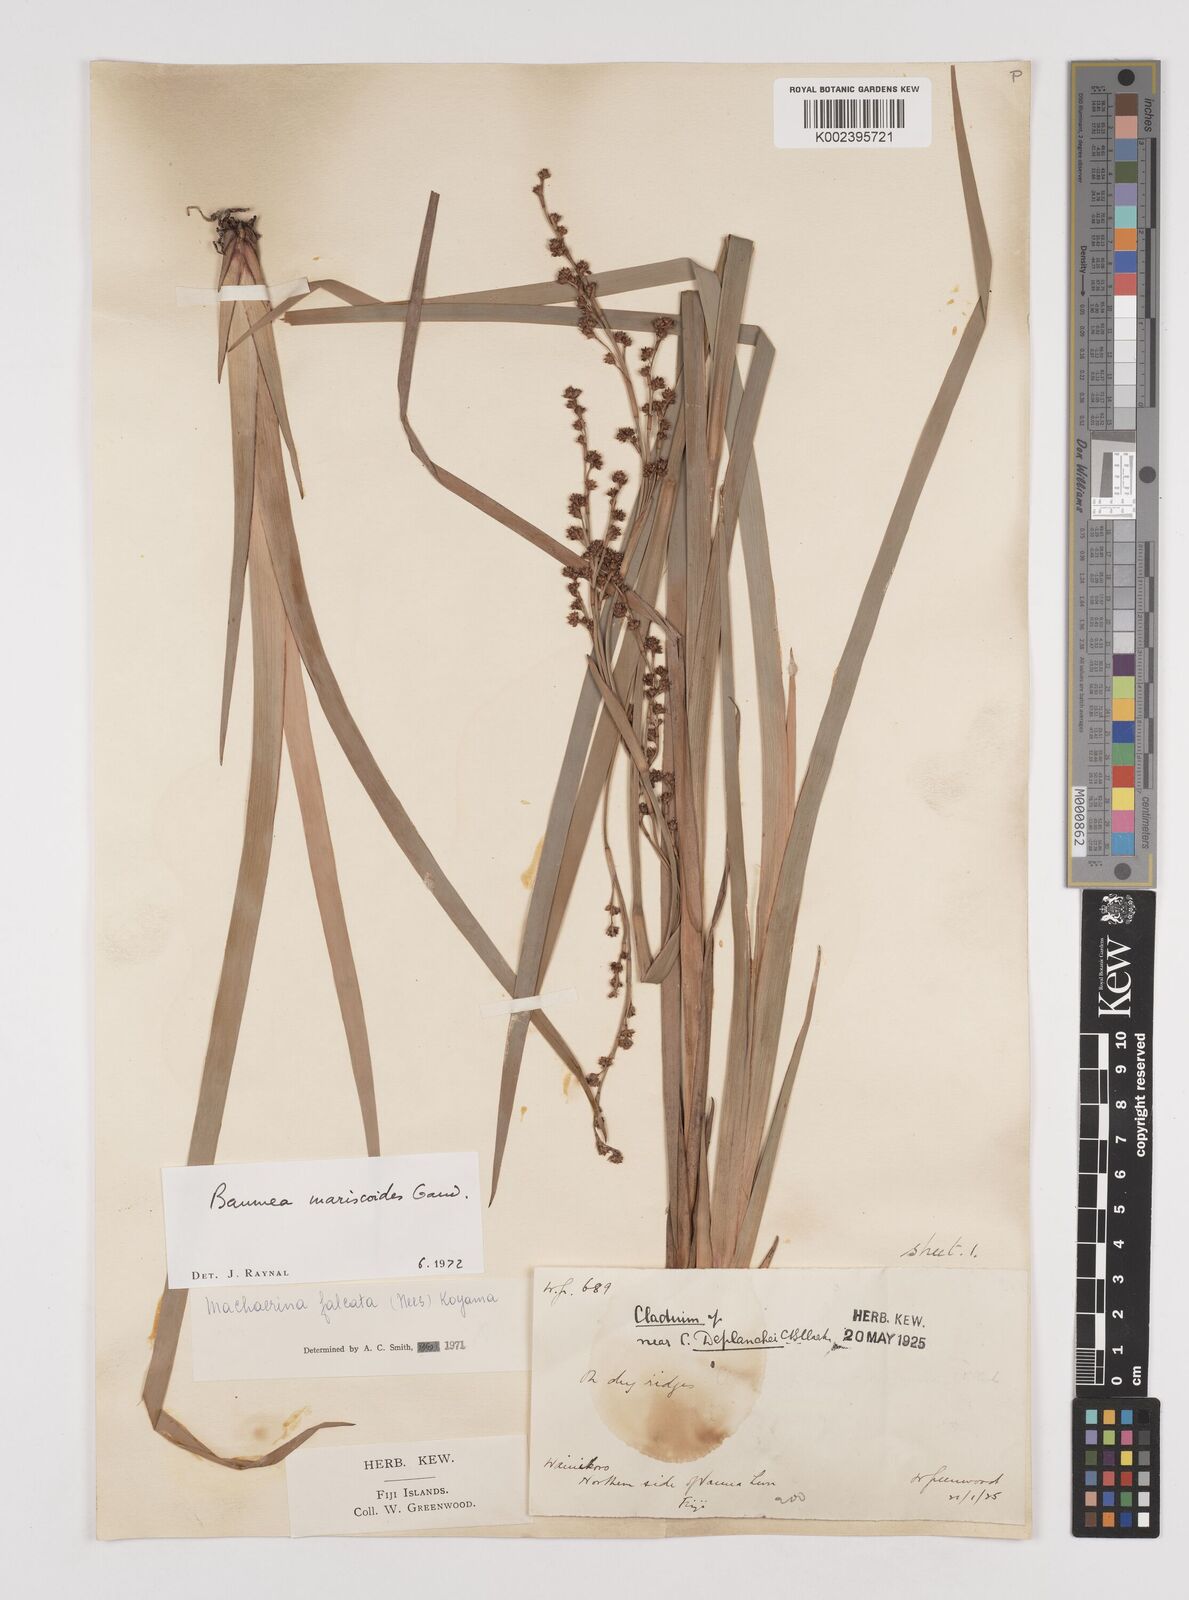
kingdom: Plantae
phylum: Tracheophyta
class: Liliopsida
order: Poales
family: Cyperaceae
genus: Machaerina
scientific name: Machaerina mariscoides
